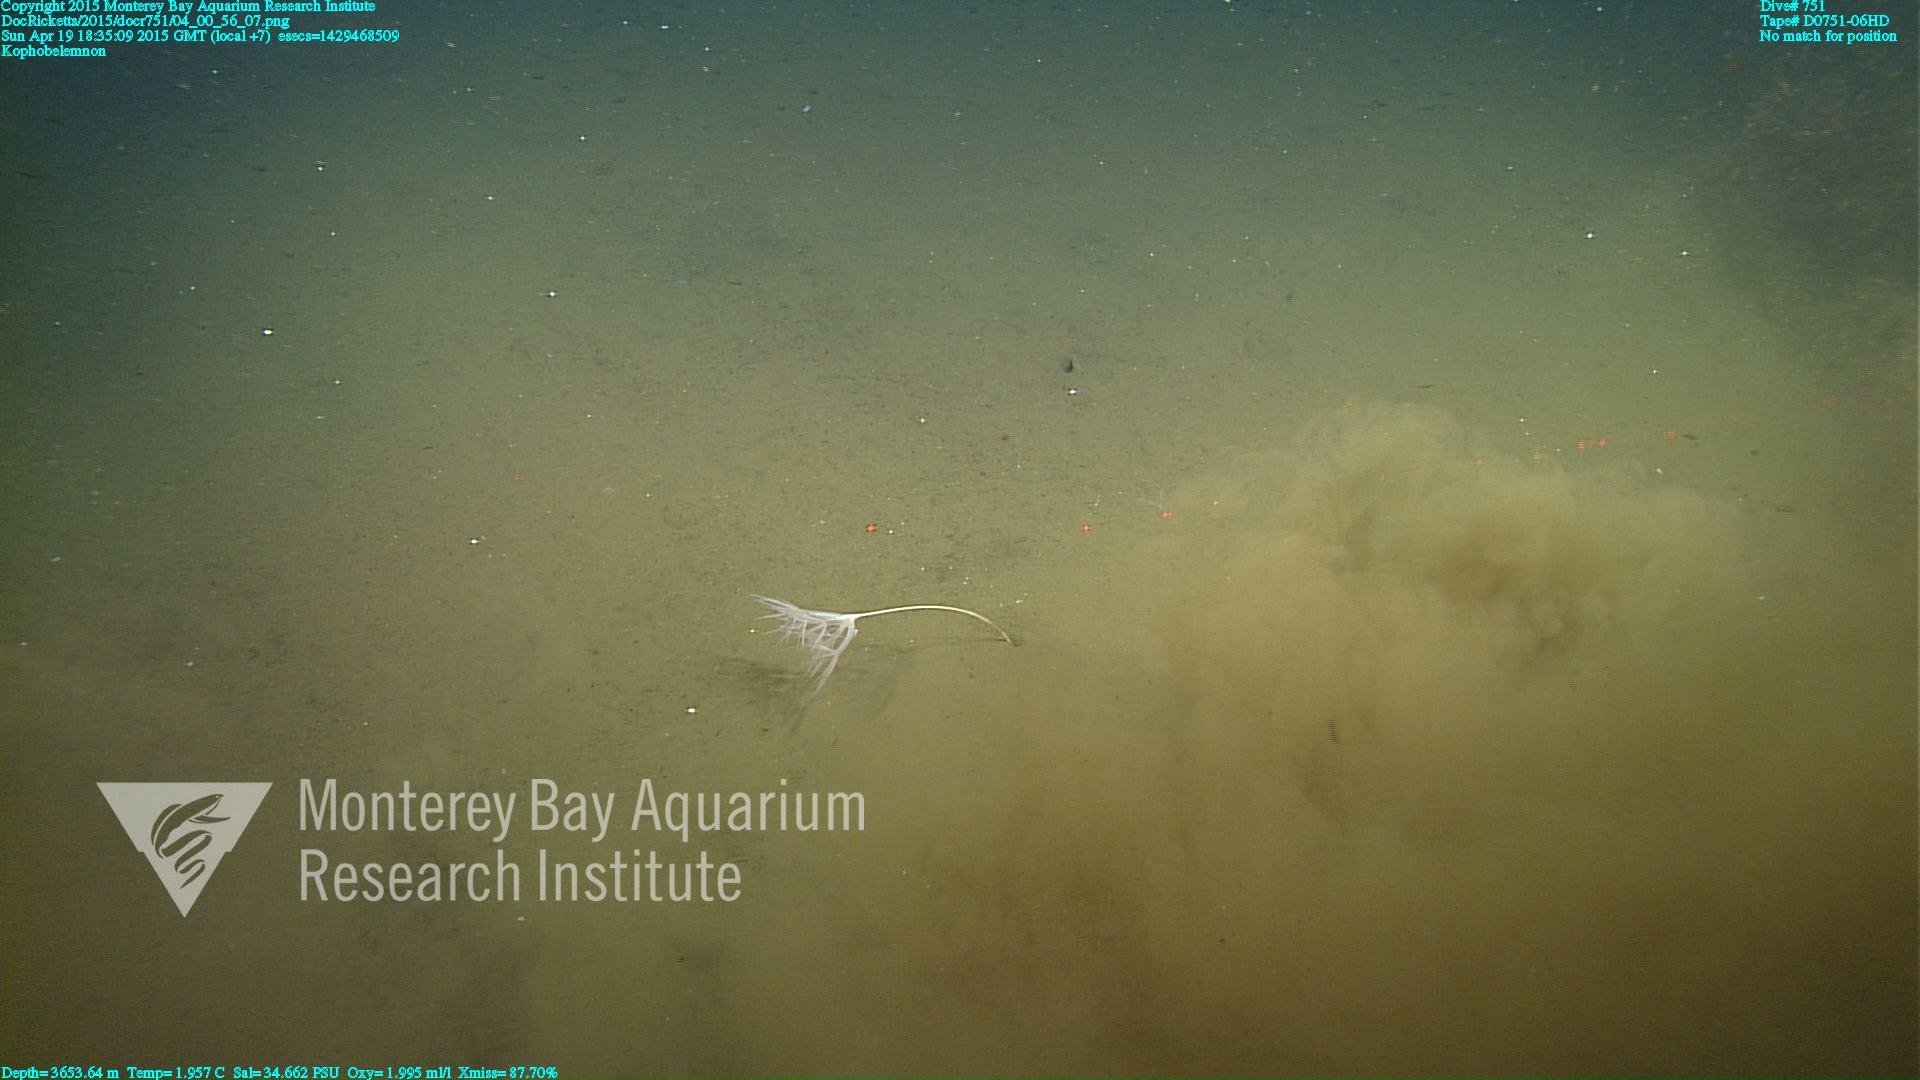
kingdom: Animalia
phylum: Cnidaria
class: Anthozoa
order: Scleralcyonacea
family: Kophobelemnidae
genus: Kophobelemnon
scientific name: Kophobelemnon
